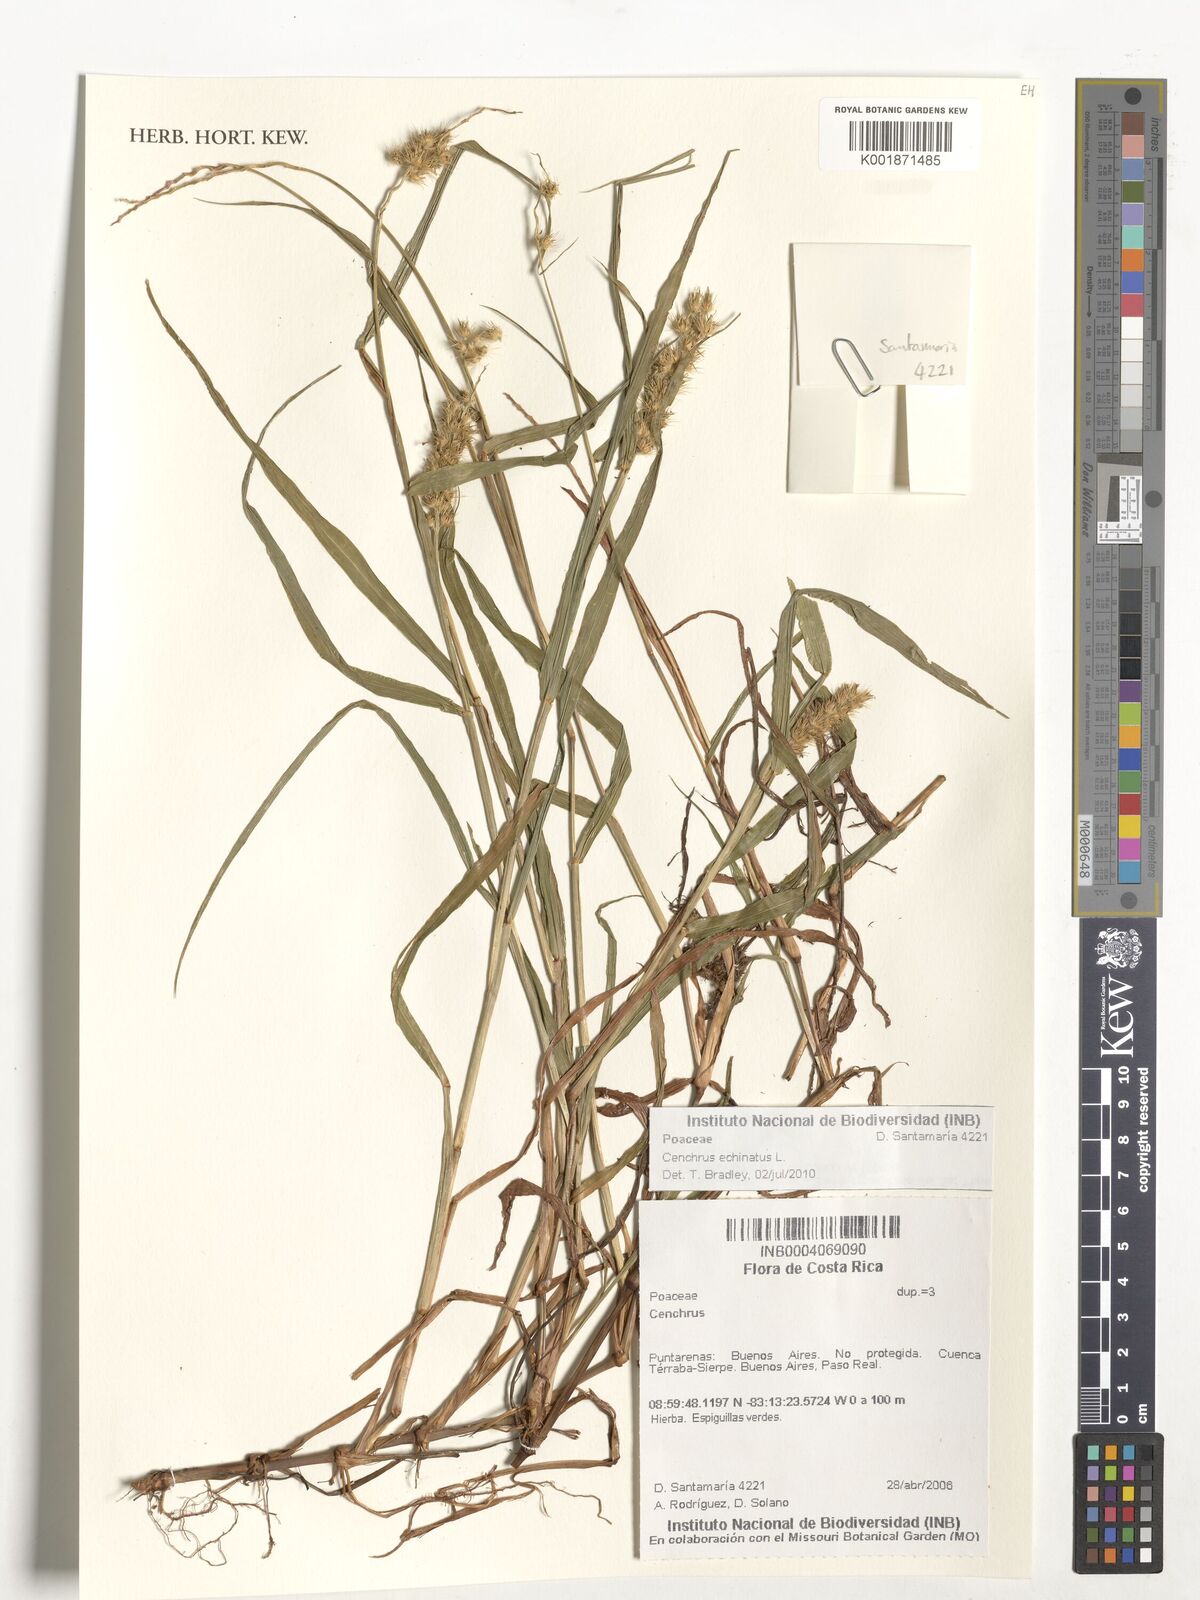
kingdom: Plantae
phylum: Tracheophyta
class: Liliopsida
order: Poales
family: Poaceae
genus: Cenchrus
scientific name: Cenchrus echinatus
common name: Southern sandbur
